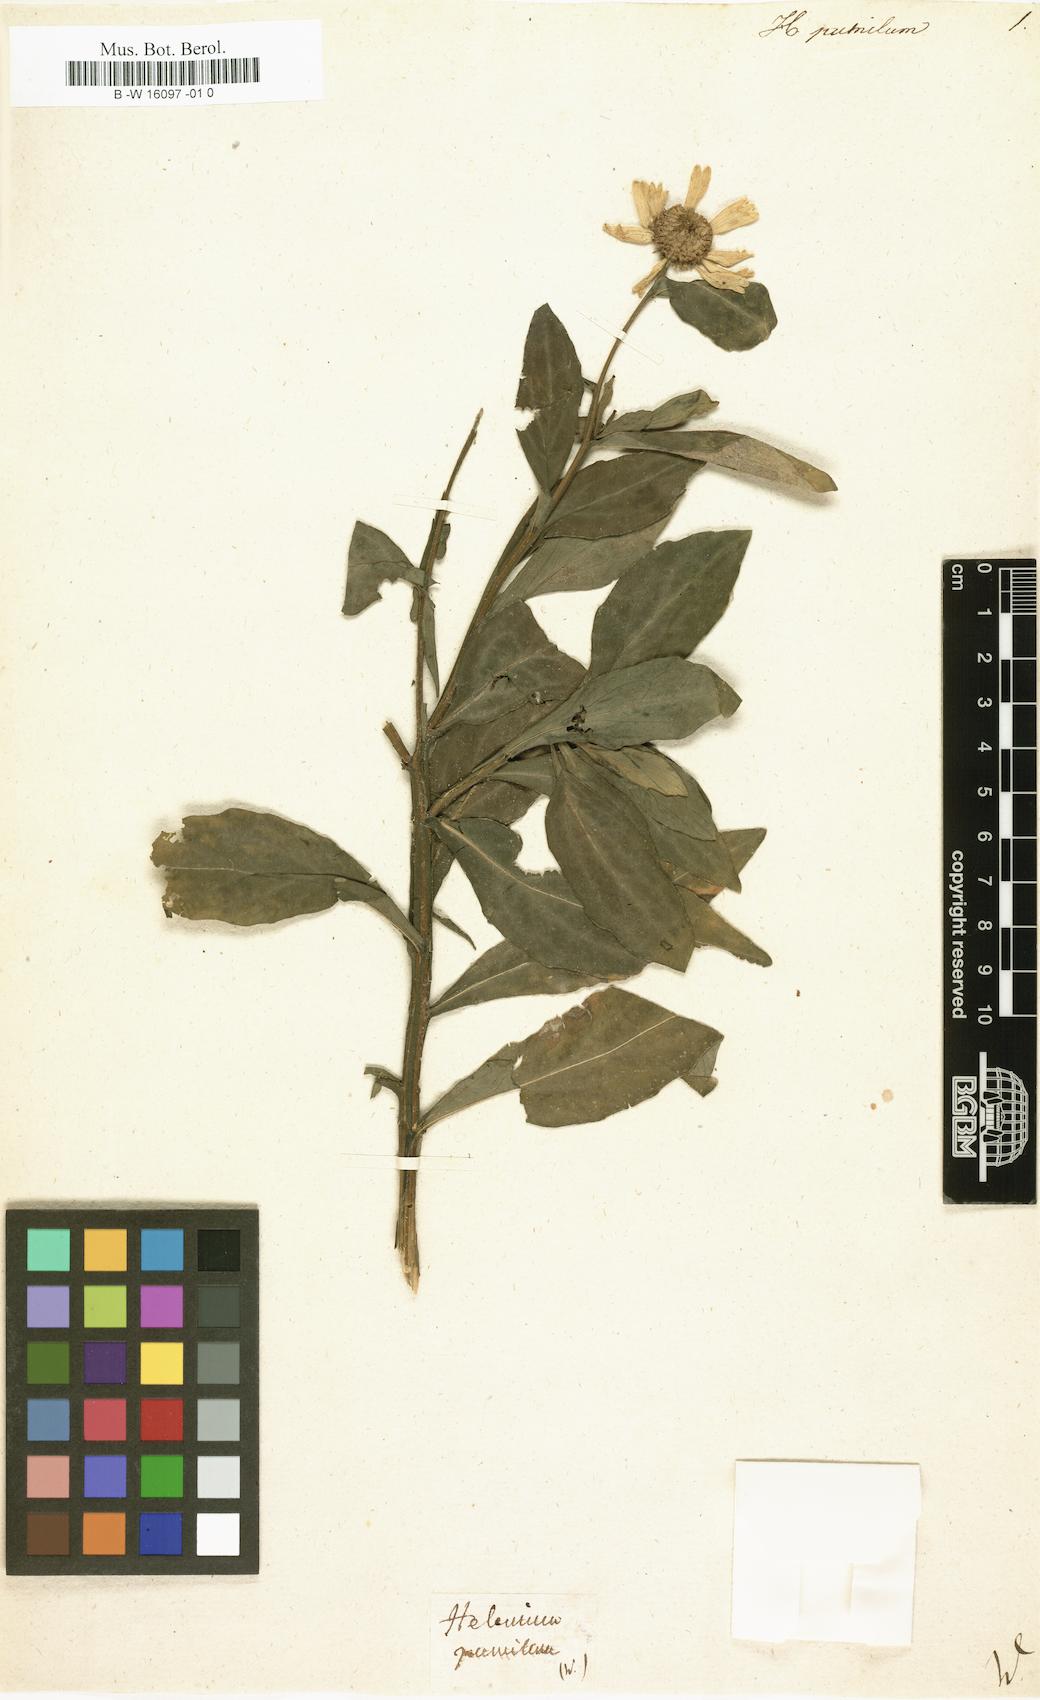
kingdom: Plantae
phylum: Tracheophyta
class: Magnoliopsida
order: Asterales
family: Asteraceae
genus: Helenium
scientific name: Helenium autumnale
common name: Sneezeweed
